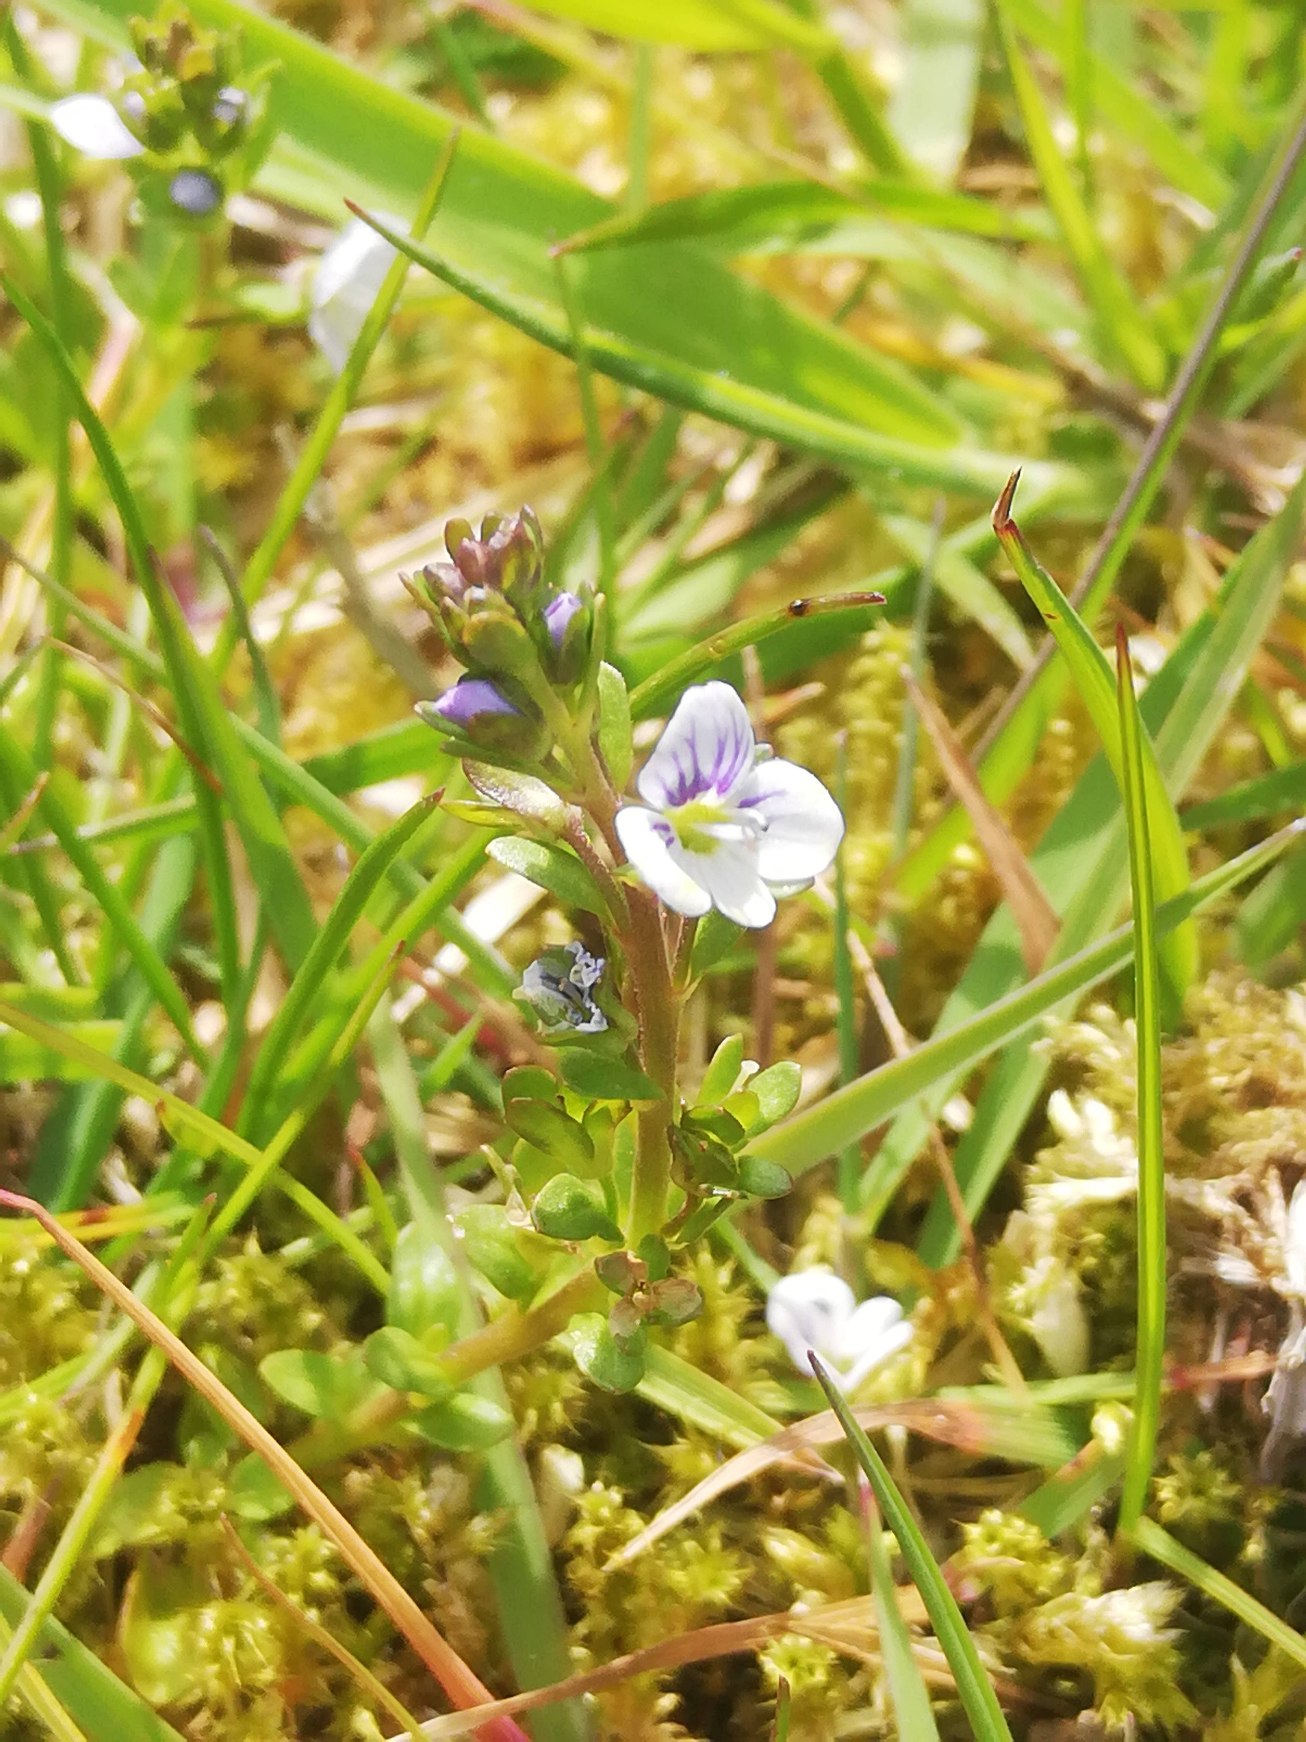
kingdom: Plantae
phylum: Tracheophyta
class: Magnoliopsida
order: Lamiales
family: Plantaginaceae
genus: Veronica
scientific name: Veronica serpyllifolia
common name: Glat ærenpris
